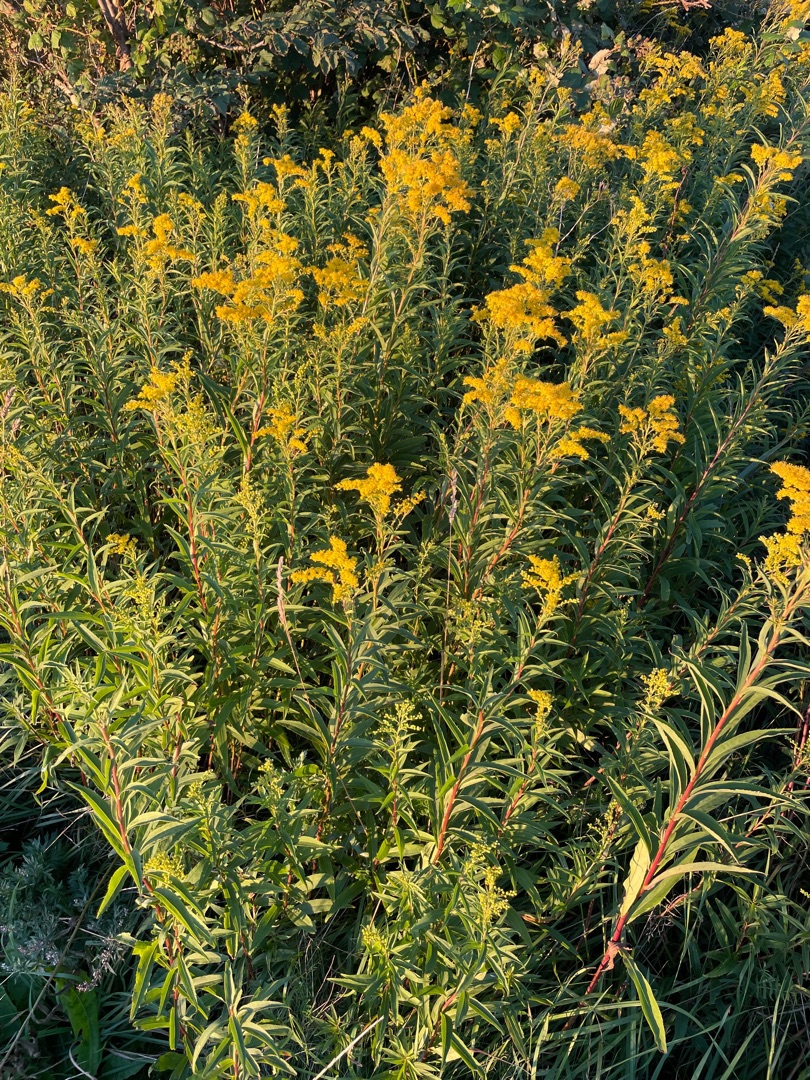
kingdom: Plantae
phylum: Tracheophyta
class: Magnoliopsida
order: Asterales
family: Asteraceae
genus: Solidago
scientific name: Solidago gigantea
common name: Sildig gyldenris
